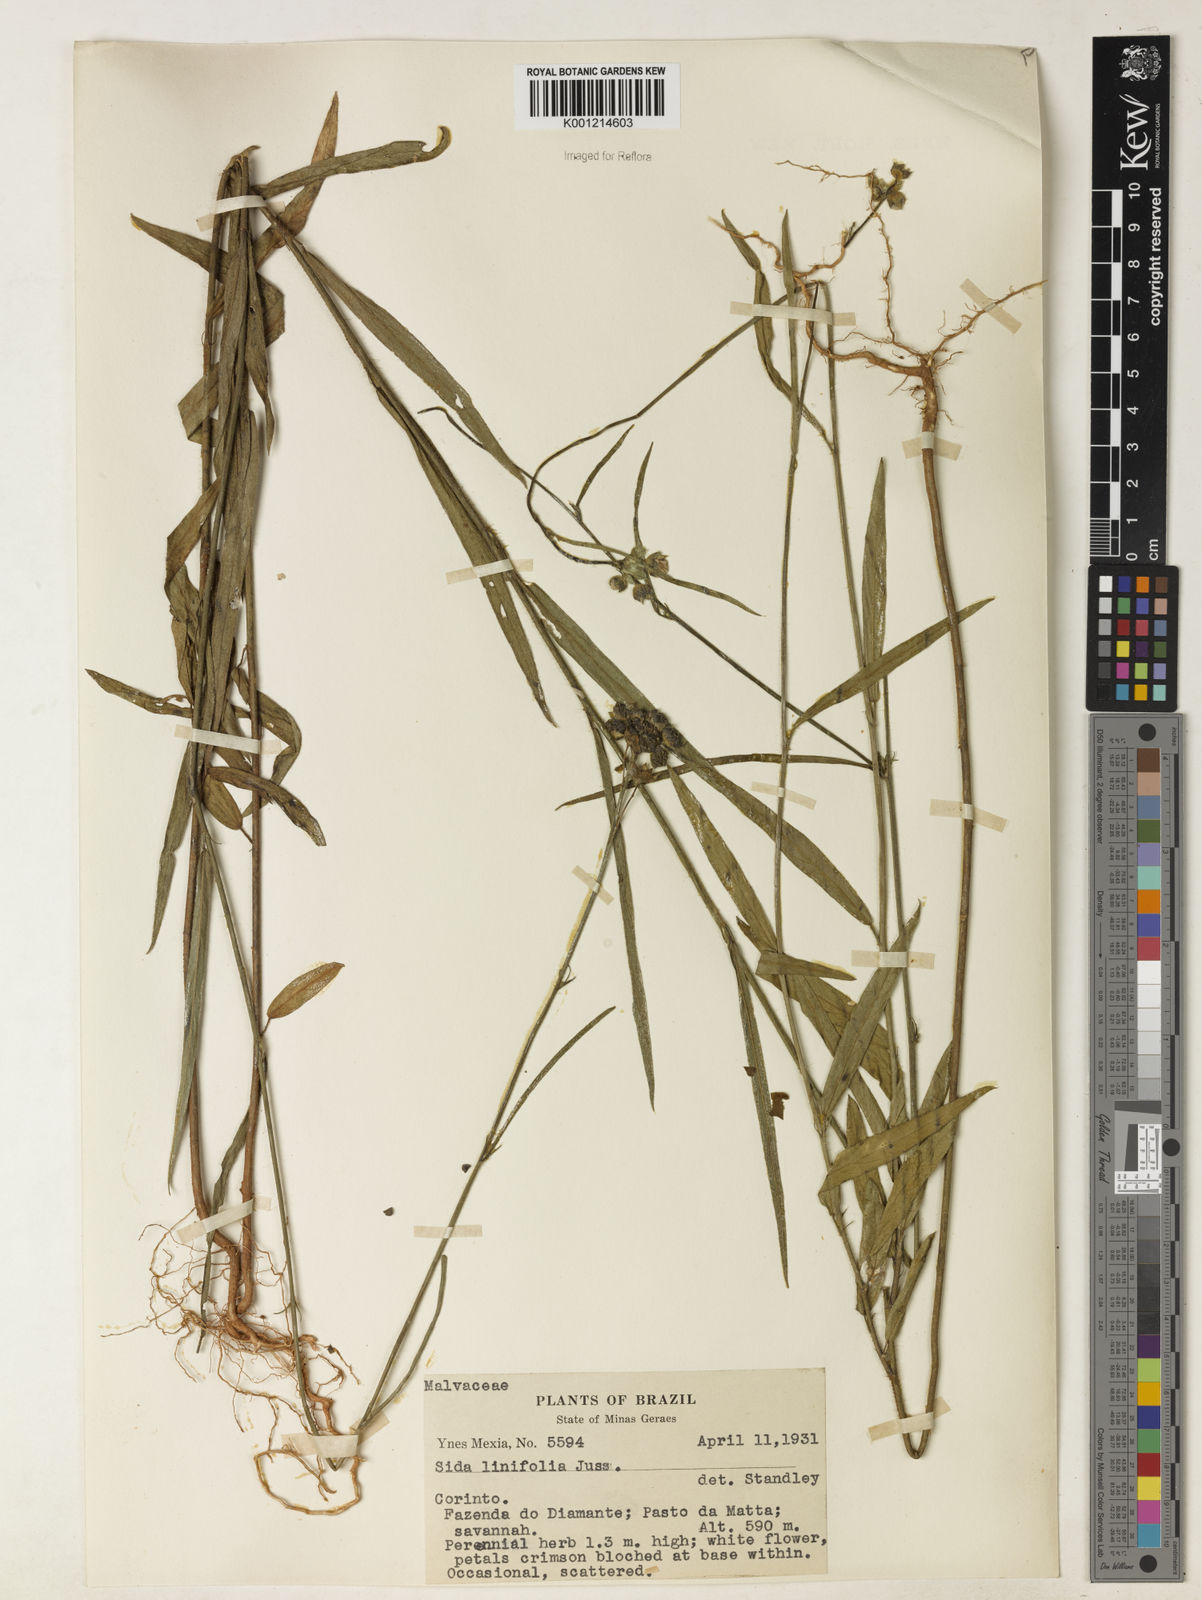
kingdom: Plantae
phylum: Tracheophyta
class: Magnoliopsida
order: Malvales
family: Malvaceae
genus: Sida
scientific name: Sida linifolia
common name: Flaxleaf fanpetals
